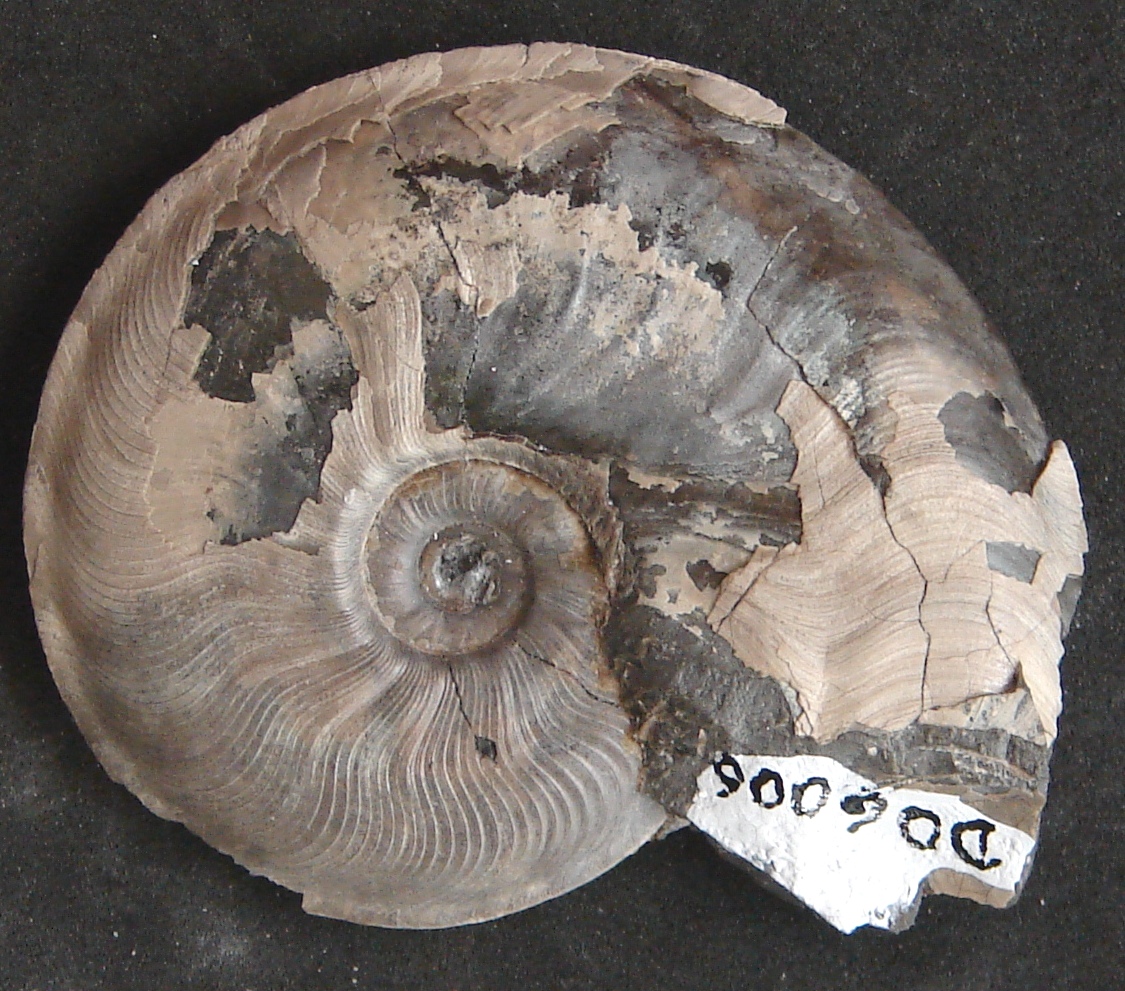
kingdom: Animalia
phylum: Mollusca
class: Cephalopoda
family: Graphoceratidae
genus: Leioceras
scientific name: Leioceras opalinum
